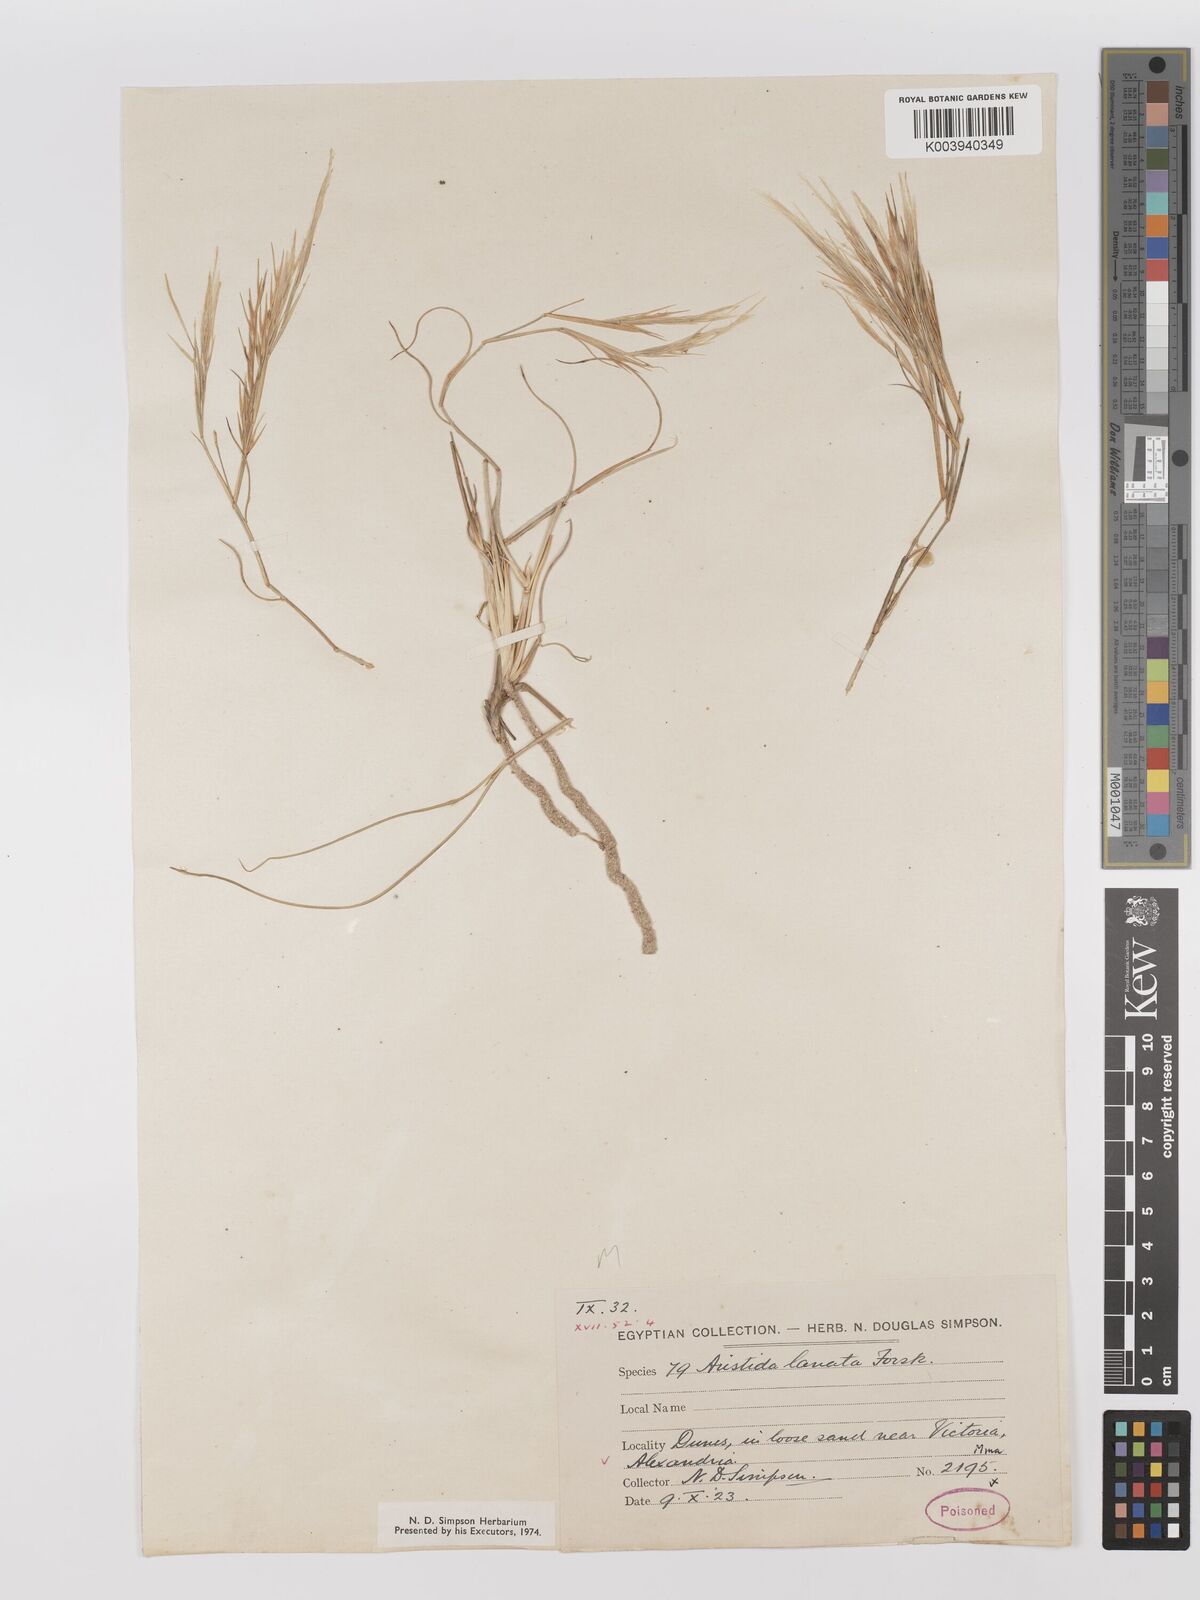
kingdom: Plantae
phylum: Tracheophyta
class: Liliopsida
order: Poales
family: Poaceae
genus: Stipagrostis
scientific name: Stipagrostis lanata
